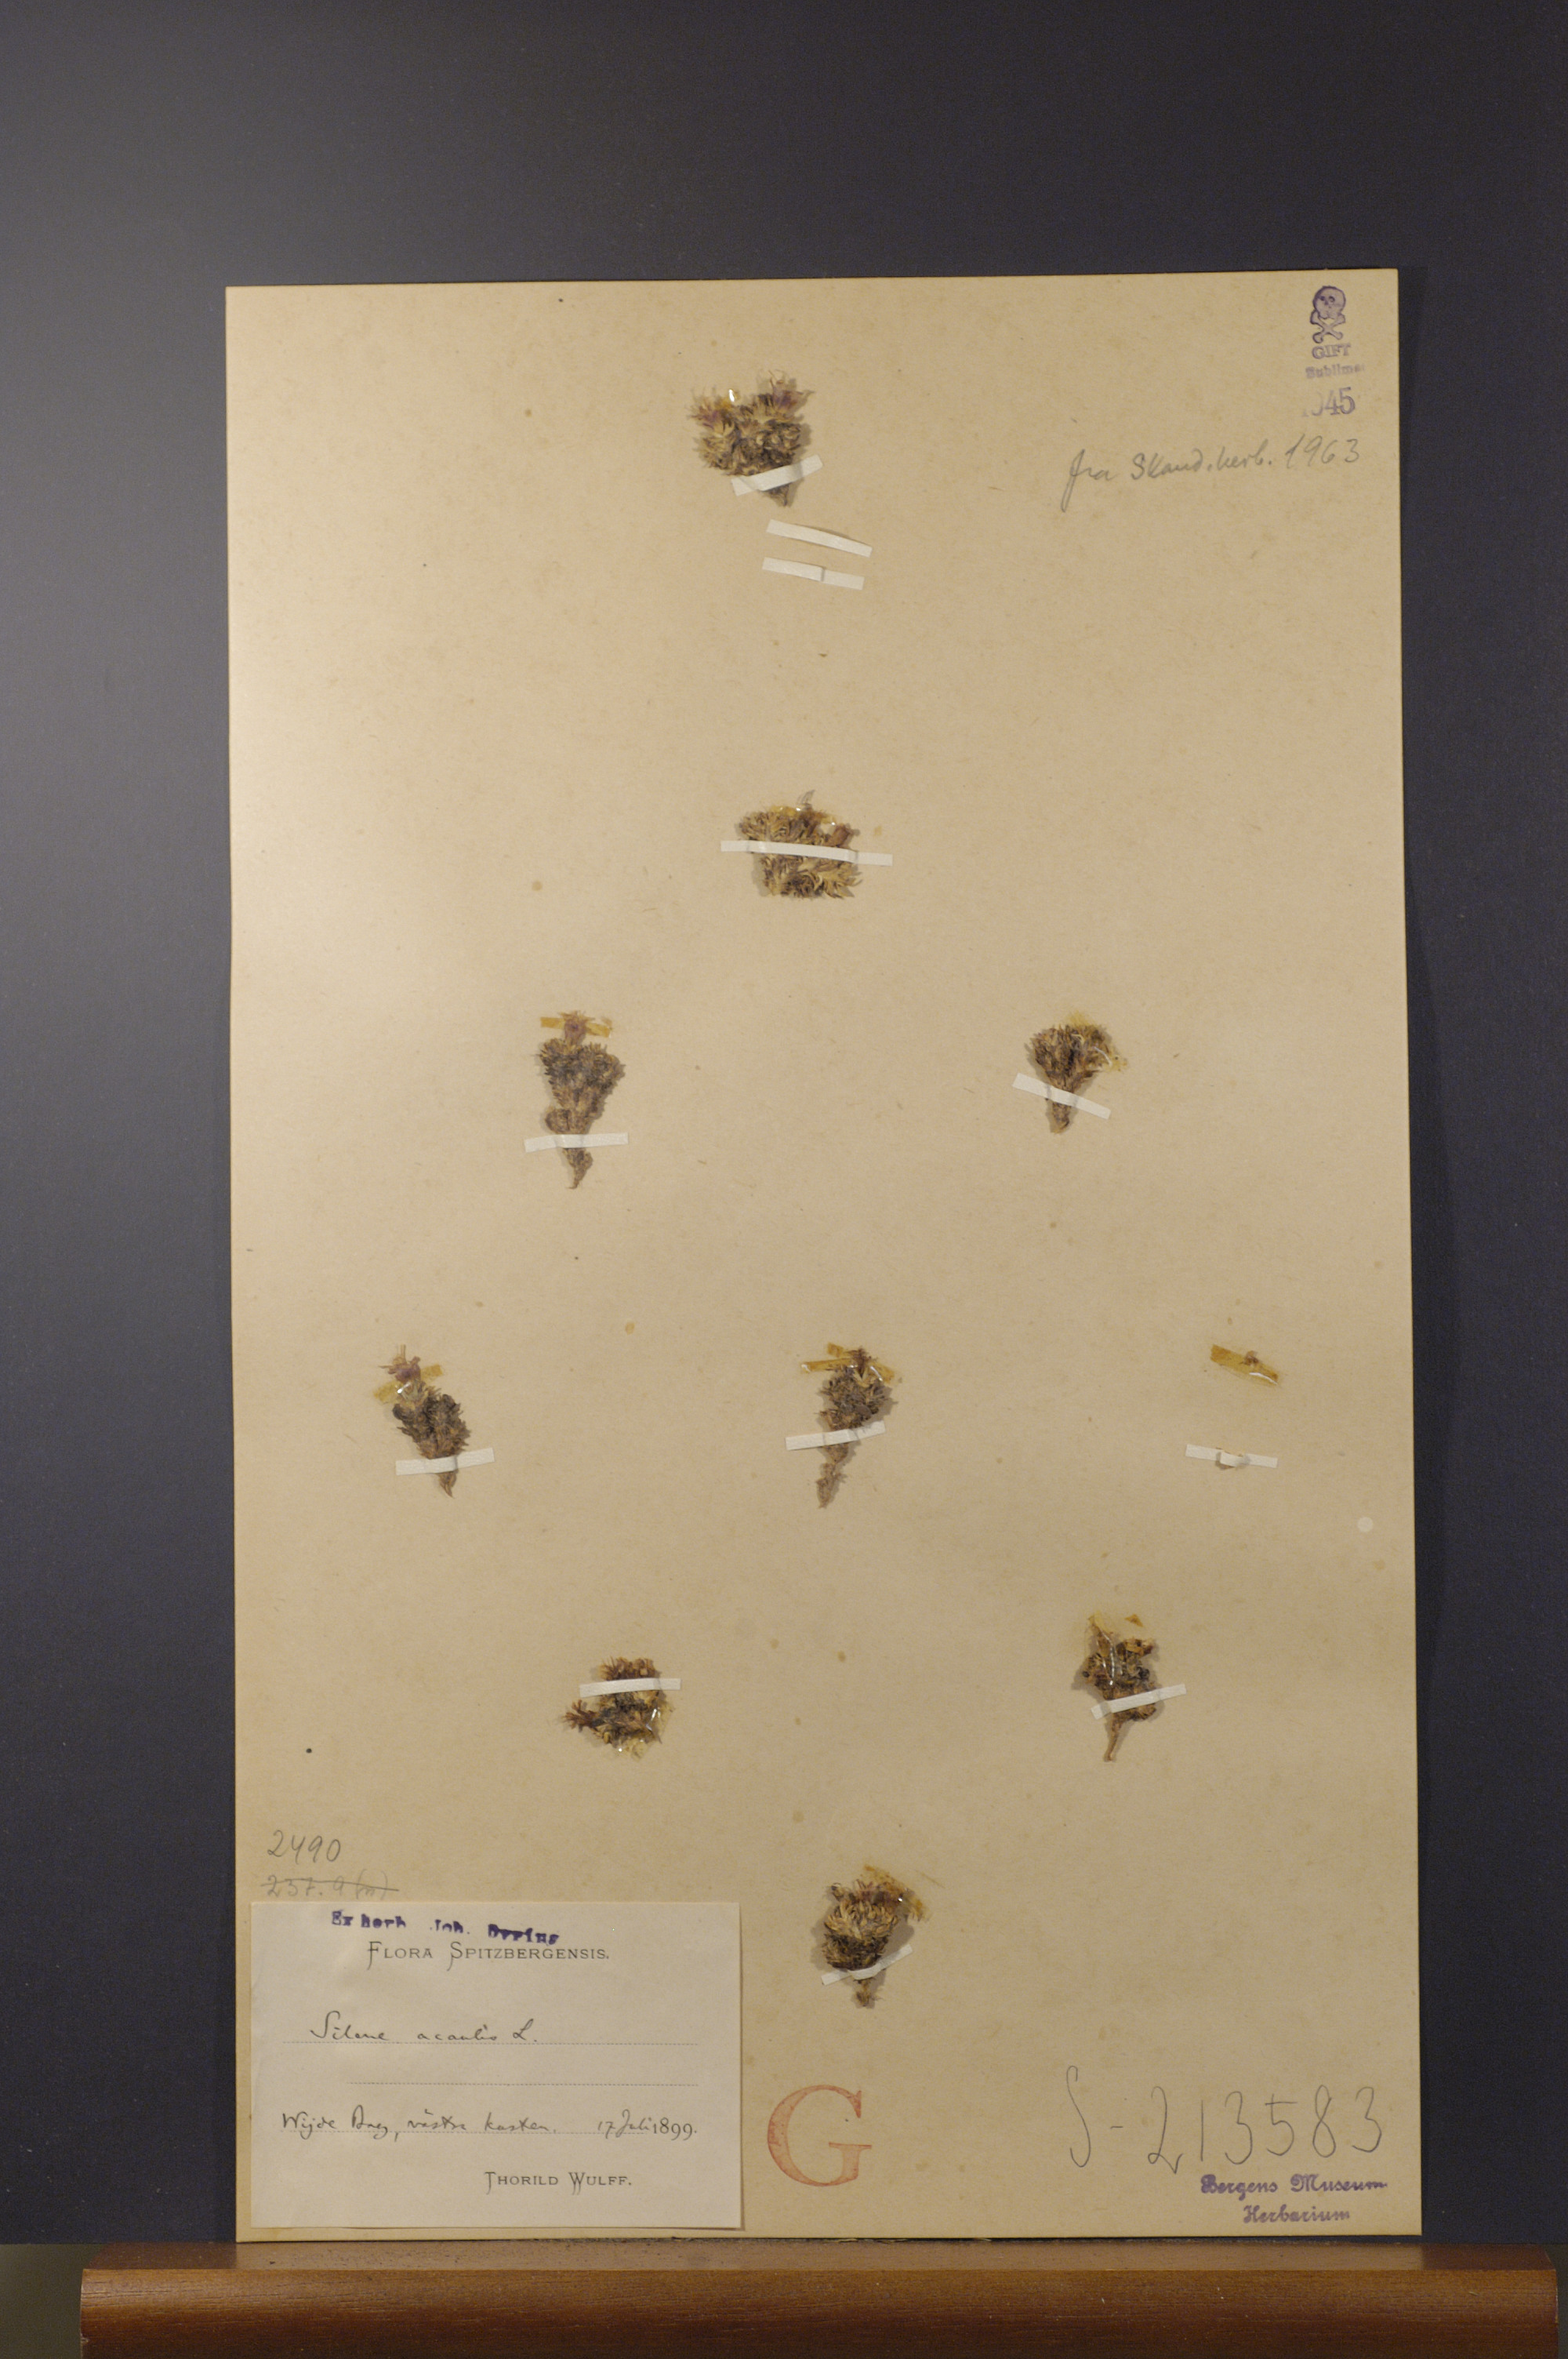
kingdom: Plantae
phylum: Tracheophyta
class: Magnoliopsida
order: Caryophyllales
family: Caryophyllaceae
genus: Silene
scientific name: Silene acaulis
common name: Moss campion
